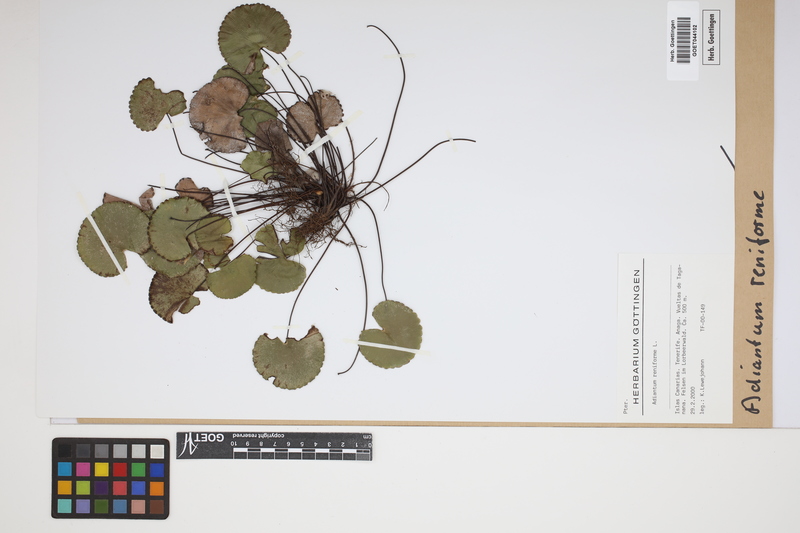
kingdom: Plantae
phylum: Tracheophyta
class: Polypodiopsida
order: Polypodiales
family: Pteridaceae
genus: Adiantum
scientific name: Adiantum reniforme
